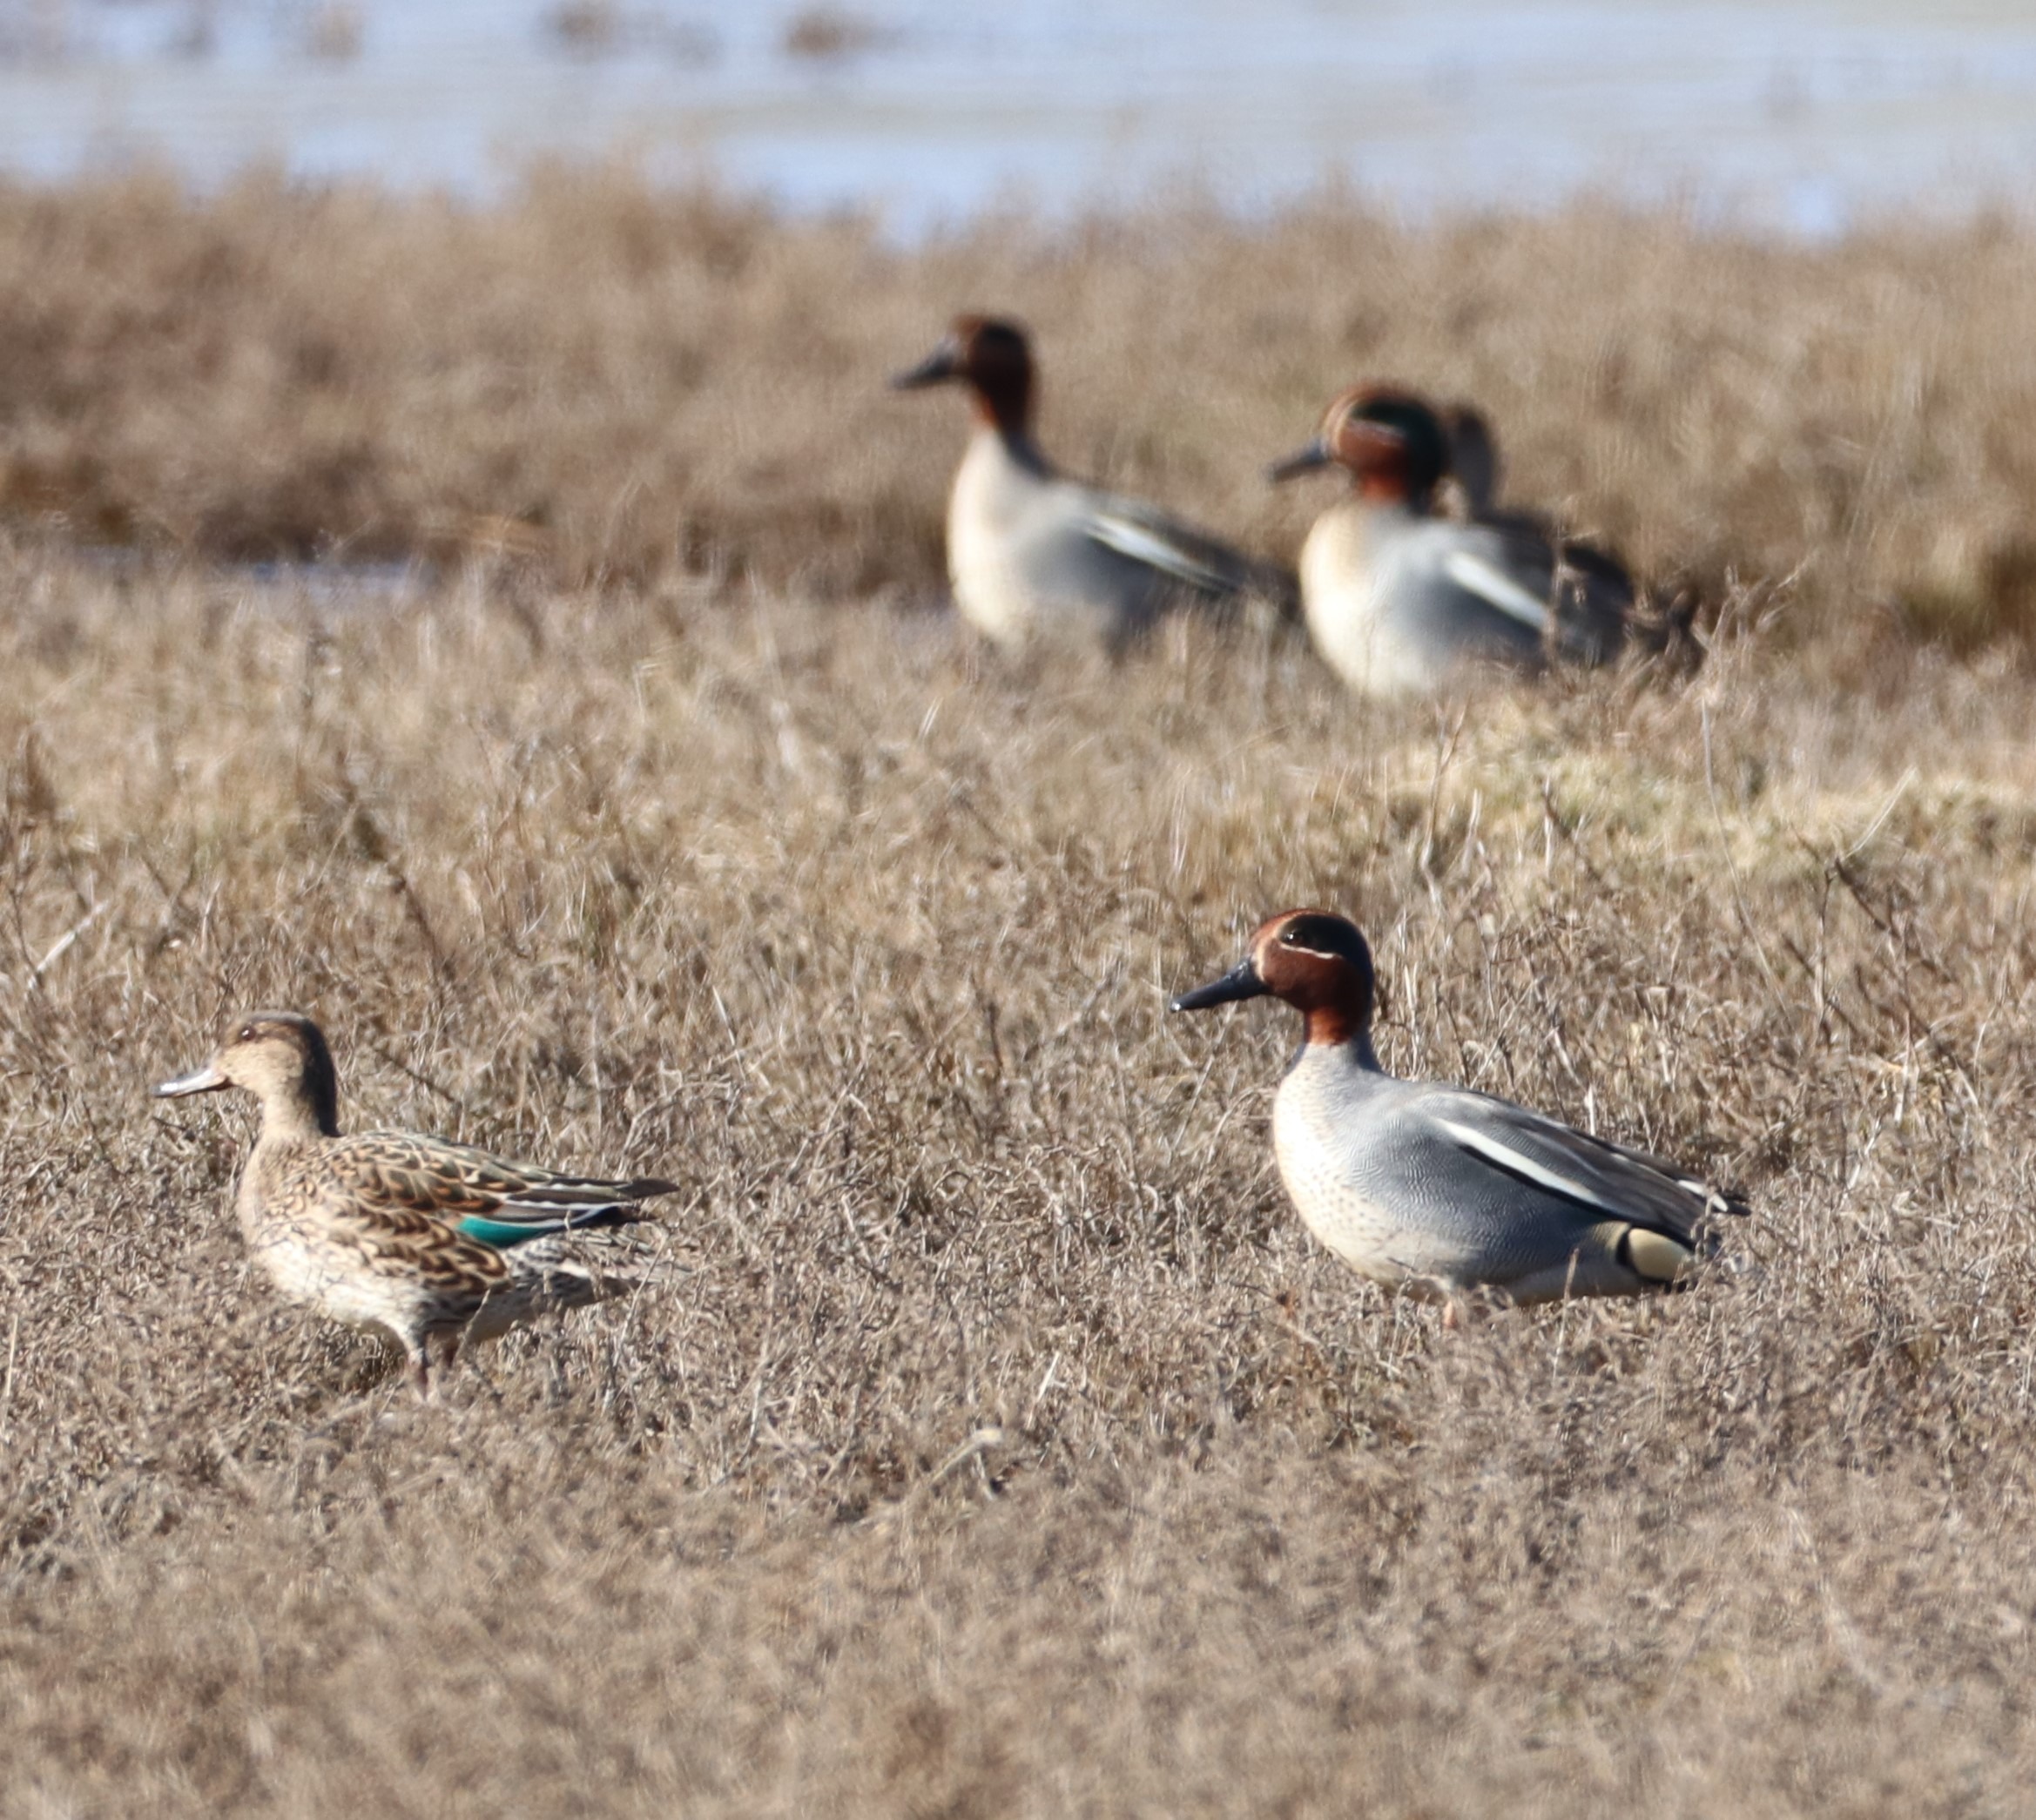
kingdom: Animalia
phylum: Chordata
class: Aves
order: Anseriformes
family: Anatidae
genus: Anas
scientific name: Anas crecca
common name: Krikand
